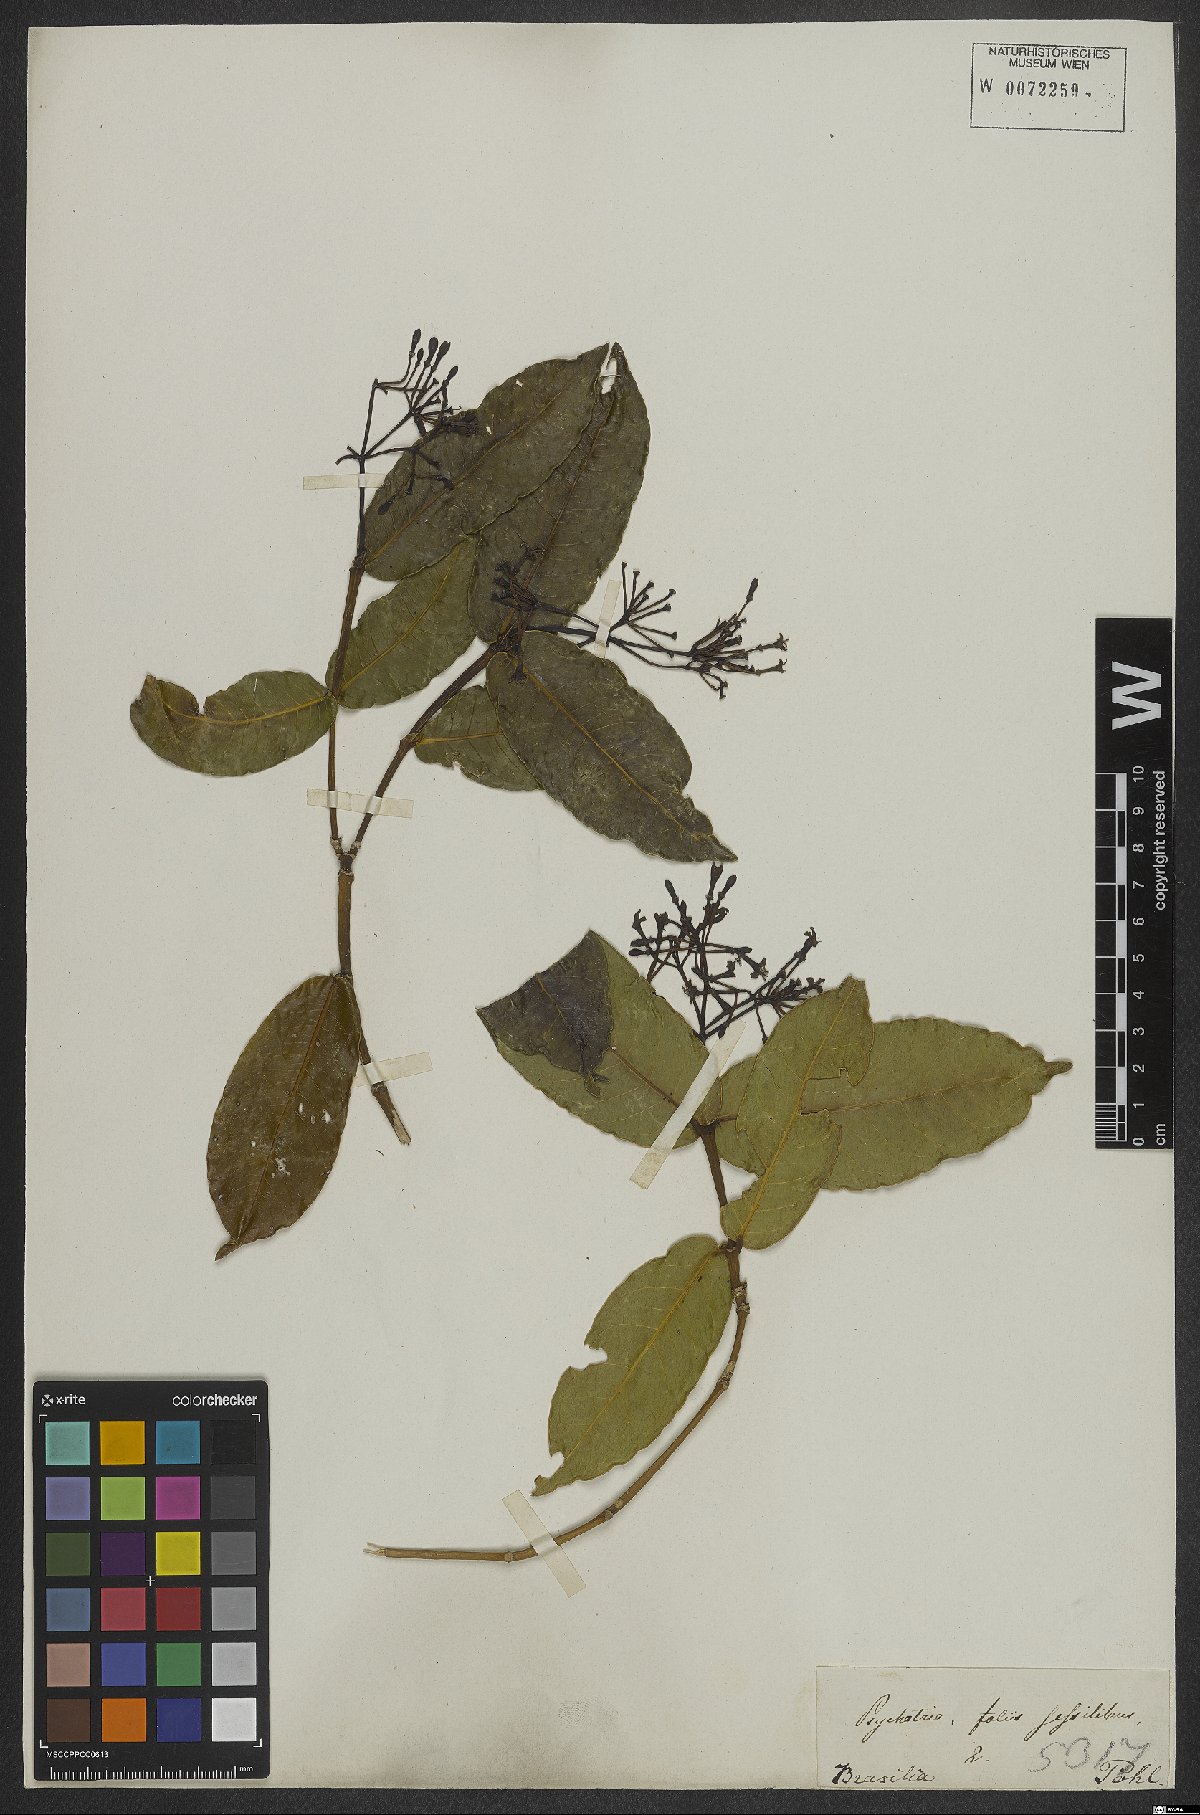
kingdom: Plantae
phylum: Tracheophyta
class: Magnoliopsida
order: Gentianales
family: Rubiaceae
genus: Faramea
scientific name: Faramea martiana
